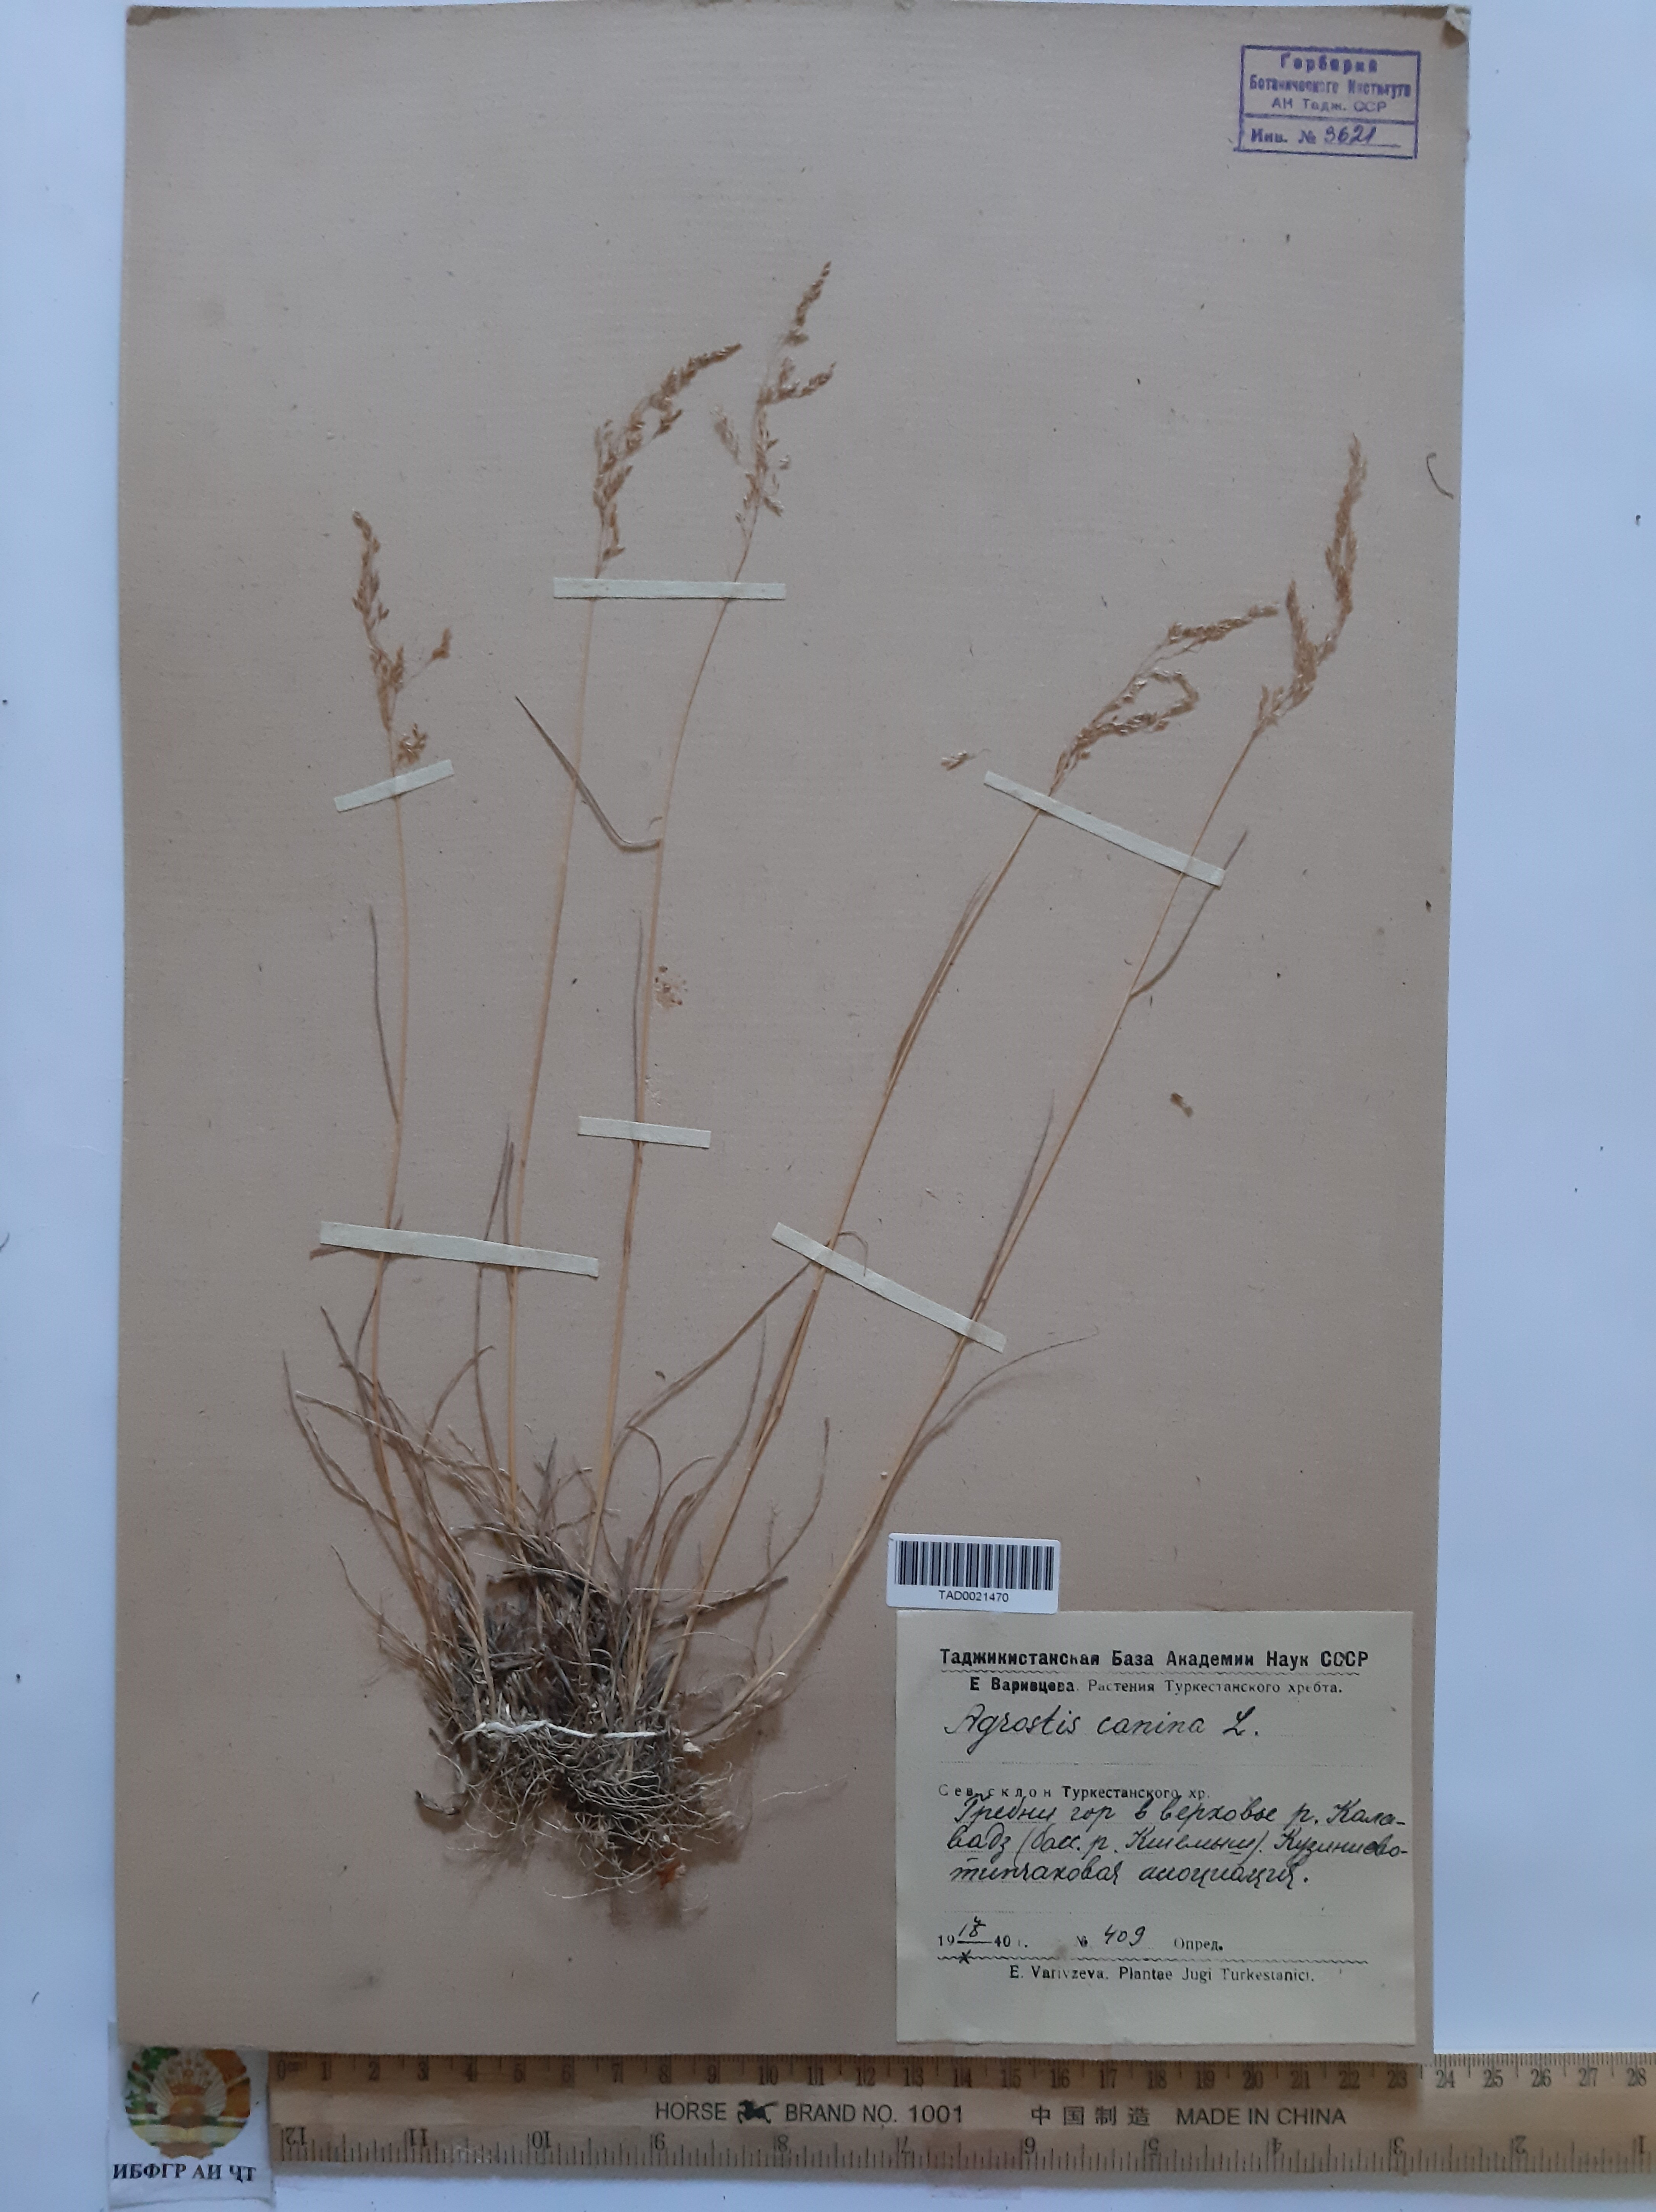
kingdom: Plantae
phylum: Tracheophyta
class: Liliopsida
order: Poales
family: Poaceae
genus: Agrostis
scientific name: Agrostis canina
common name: Velvet bent
